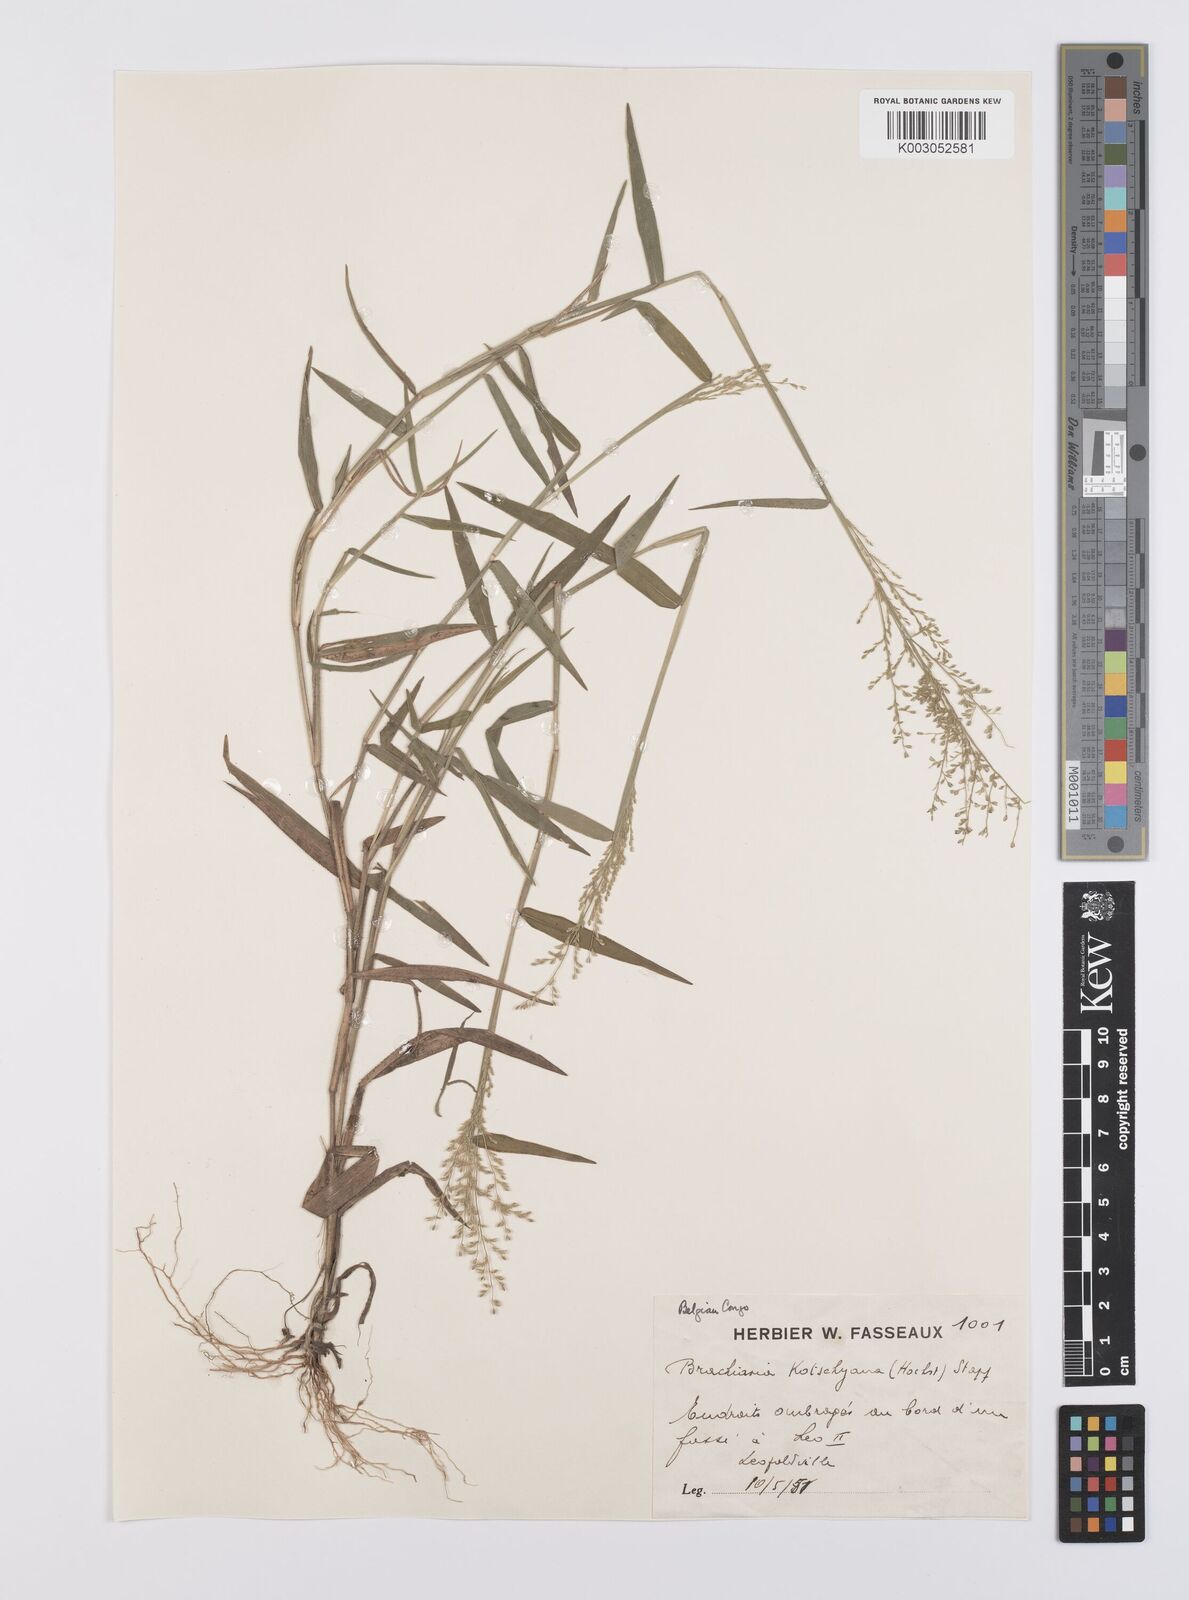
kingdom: Plantae
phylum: Tracheophyta
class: Liliopsida
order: Poales
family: Poaceae
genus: Urochloa
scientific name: Urochloa comata
